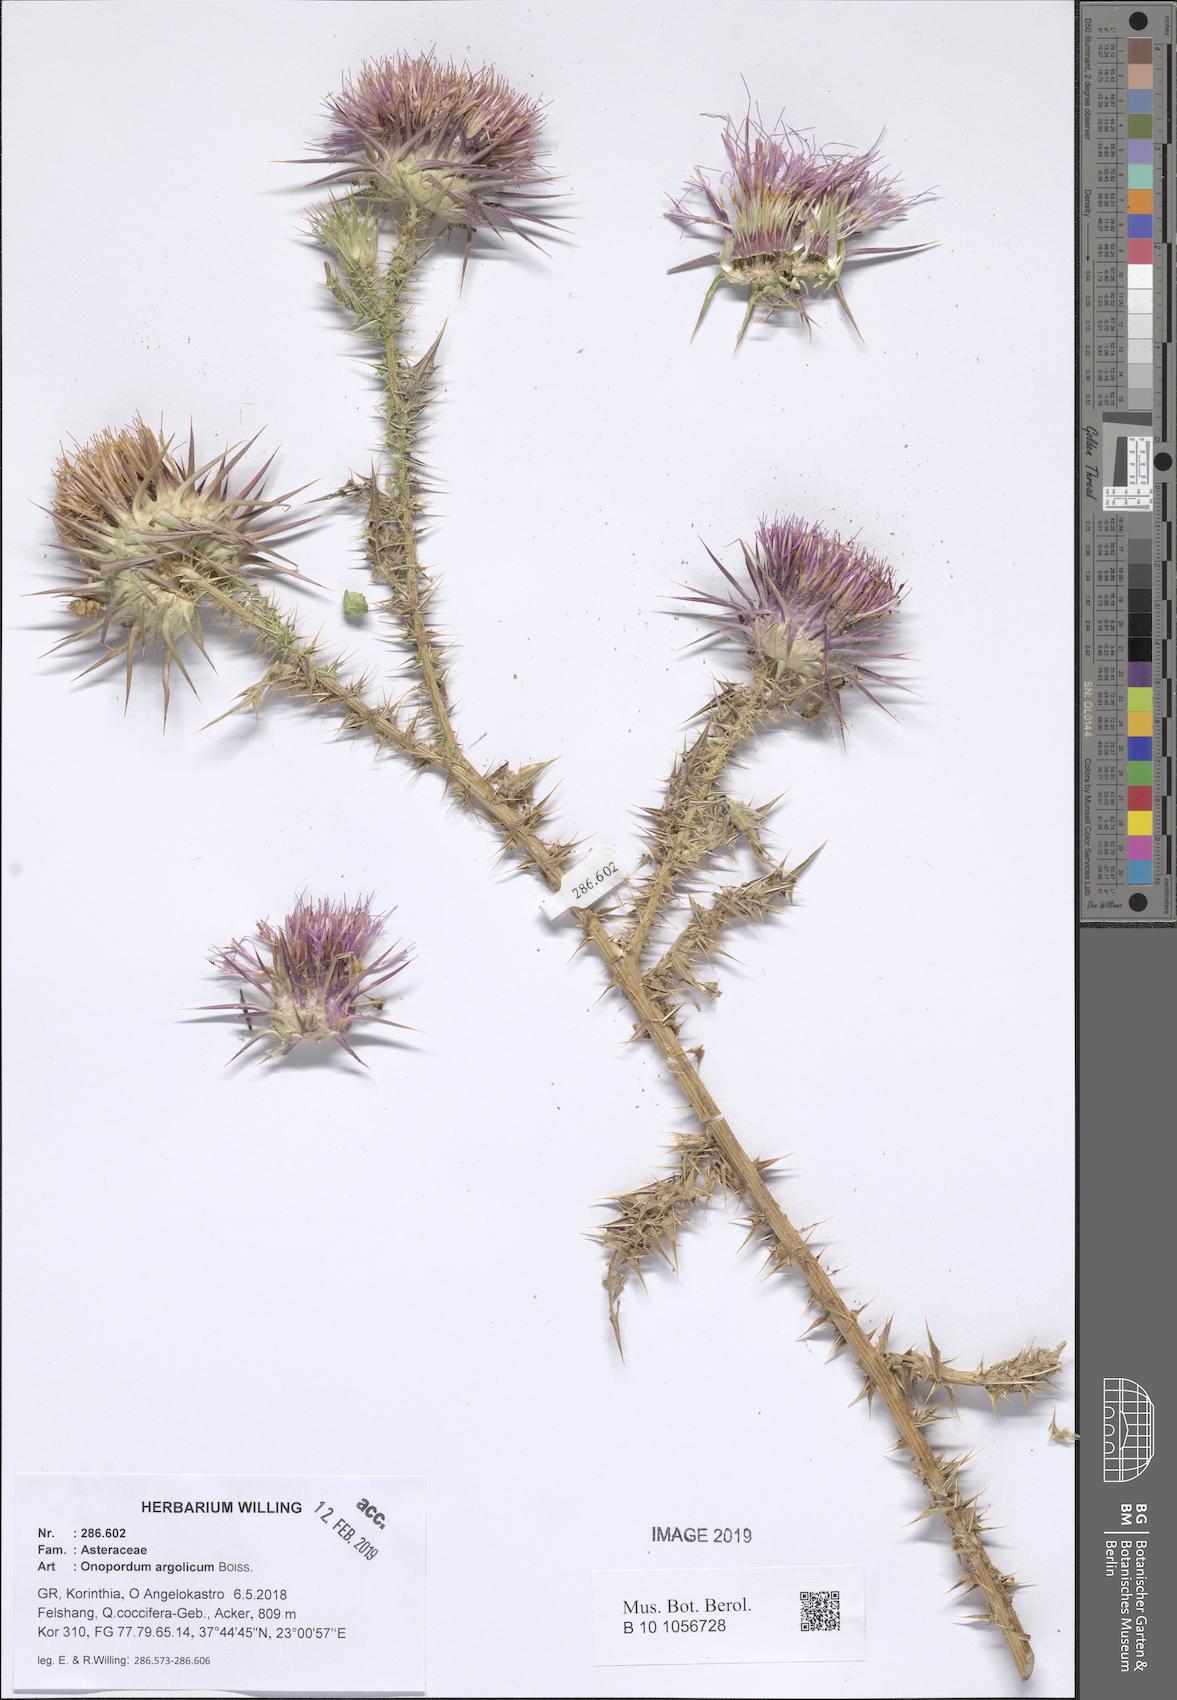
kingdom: Plantae
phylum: Tracheophyta
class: Magnoliopsida
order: Asterales
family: Asteraceae
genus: Onopordum
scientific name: Onopordum tauricum
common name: Bull cottonthistle
